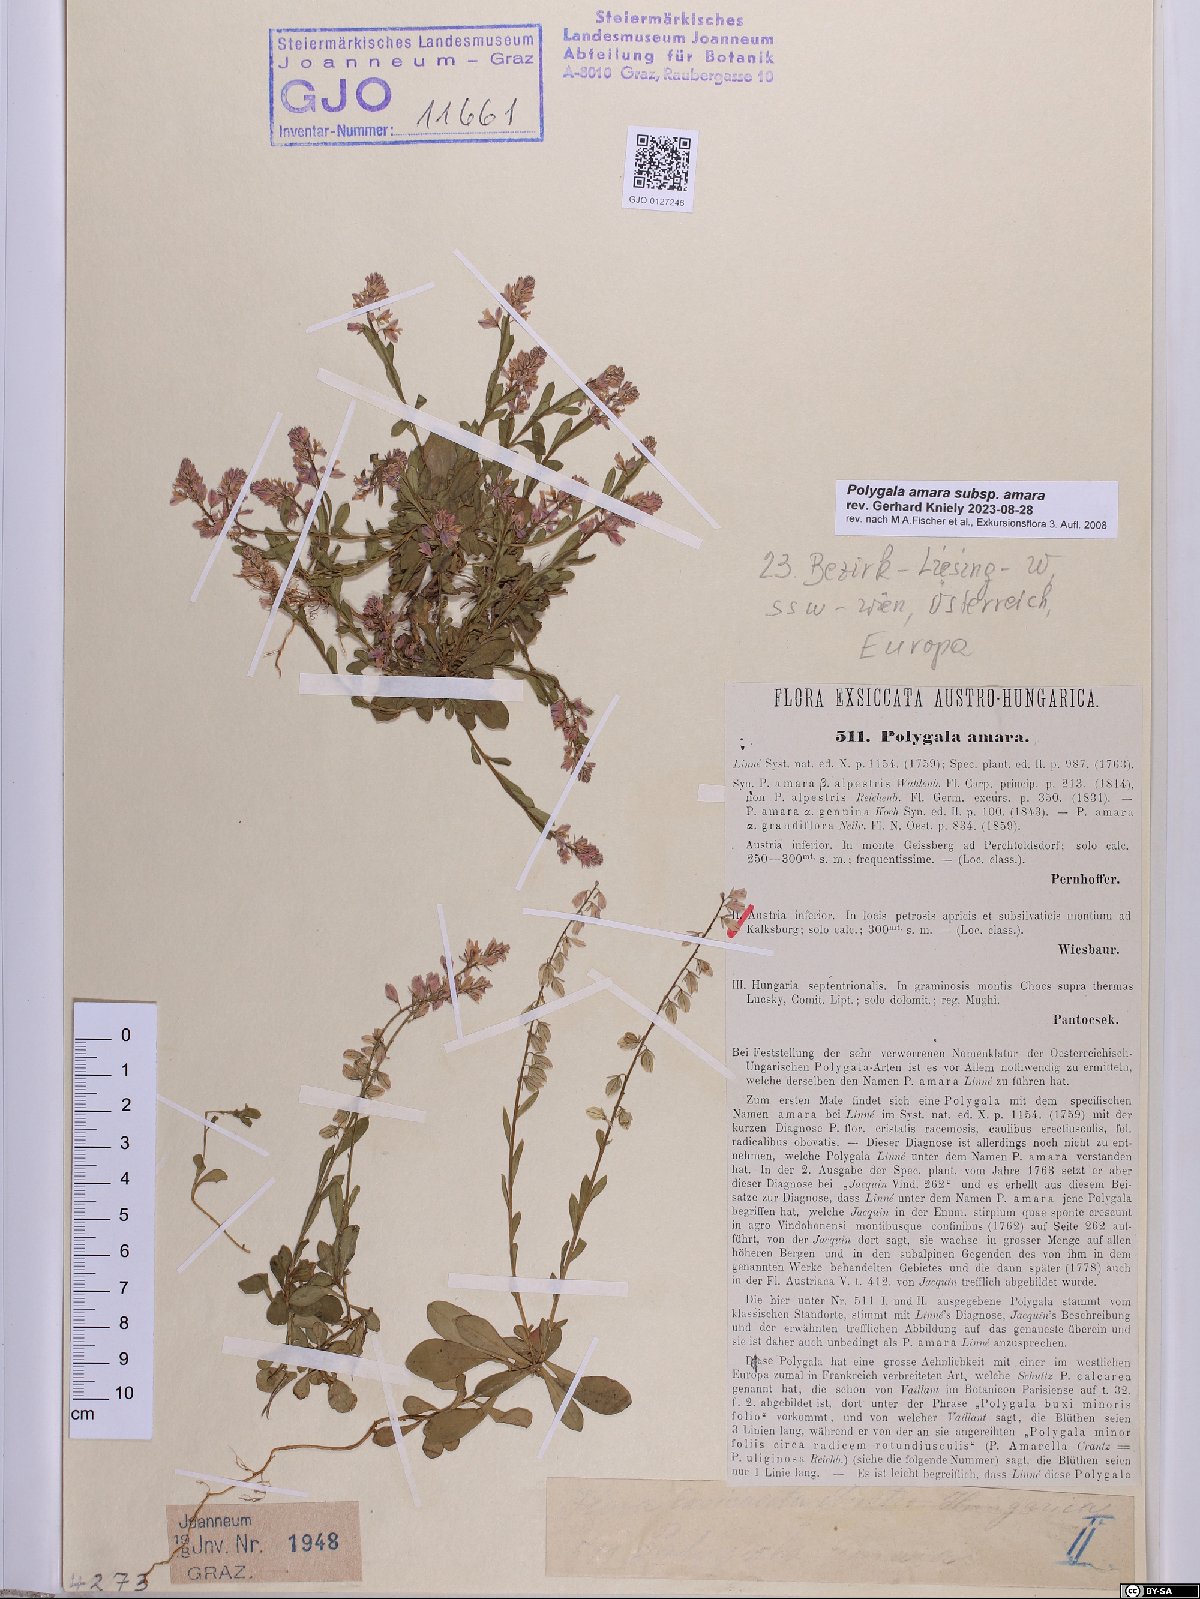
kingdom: Plantae
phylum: Tracheophyta
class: Magnoliopsida
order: Fabales
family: Polygalaceae
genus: Polygala
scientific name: Polygala amara
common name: Milkwort
